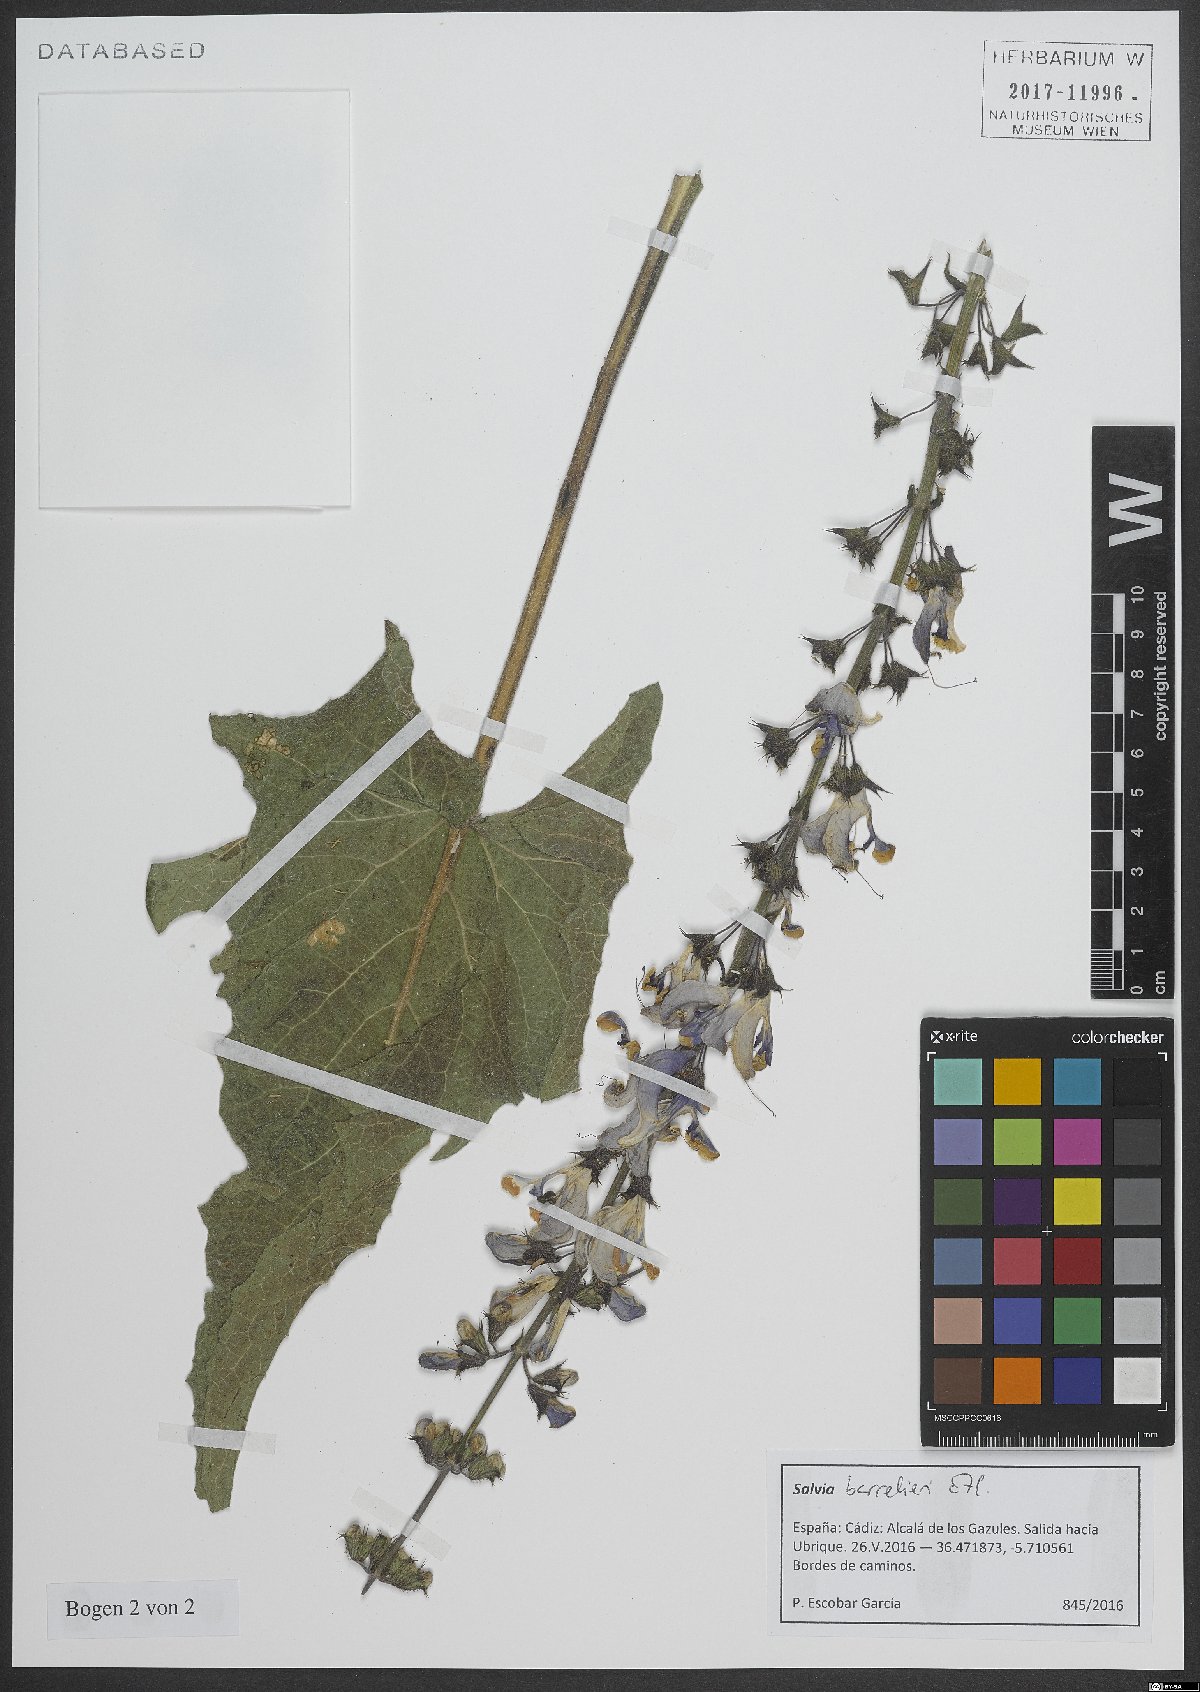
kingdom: Plantae
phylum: Tracheophyta
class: Magnoliopsida
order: Lamiales
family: Lamiaceae
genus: Salvia
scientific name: Salvia barrelieri
